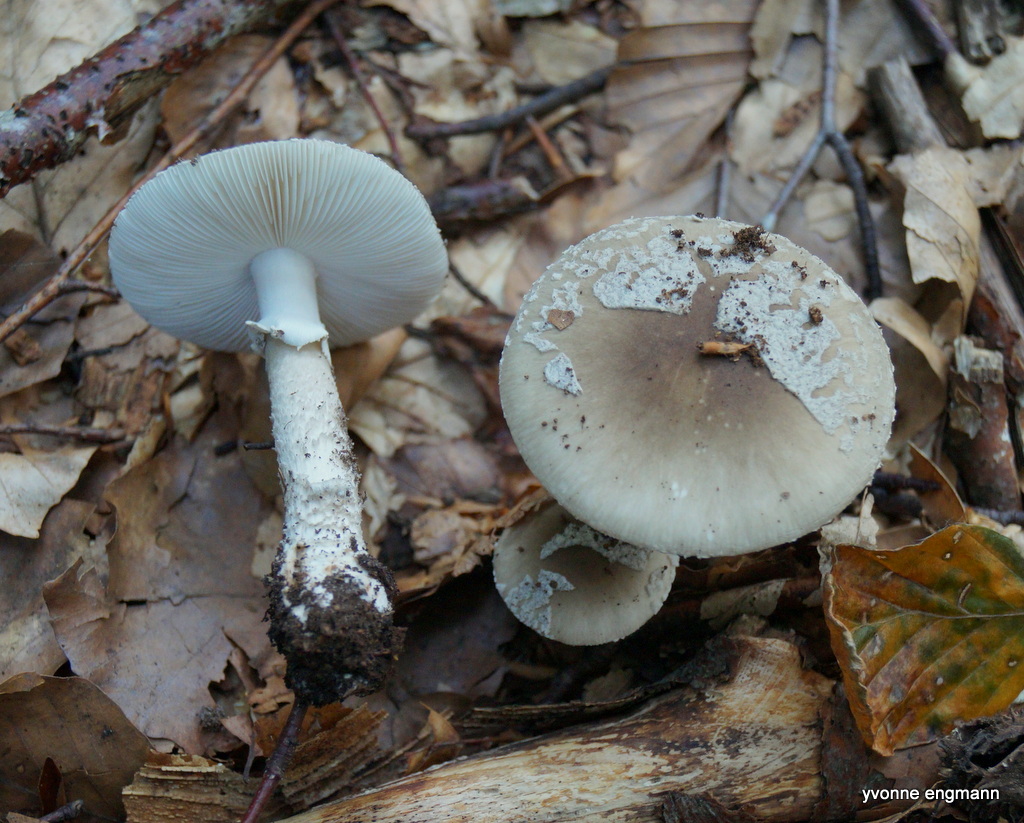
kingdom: Fungi
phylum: Basidiomycota
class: Agaricomycetes
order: Agaricales
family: Amanitaceae
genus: Amanita
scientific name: Amanita
